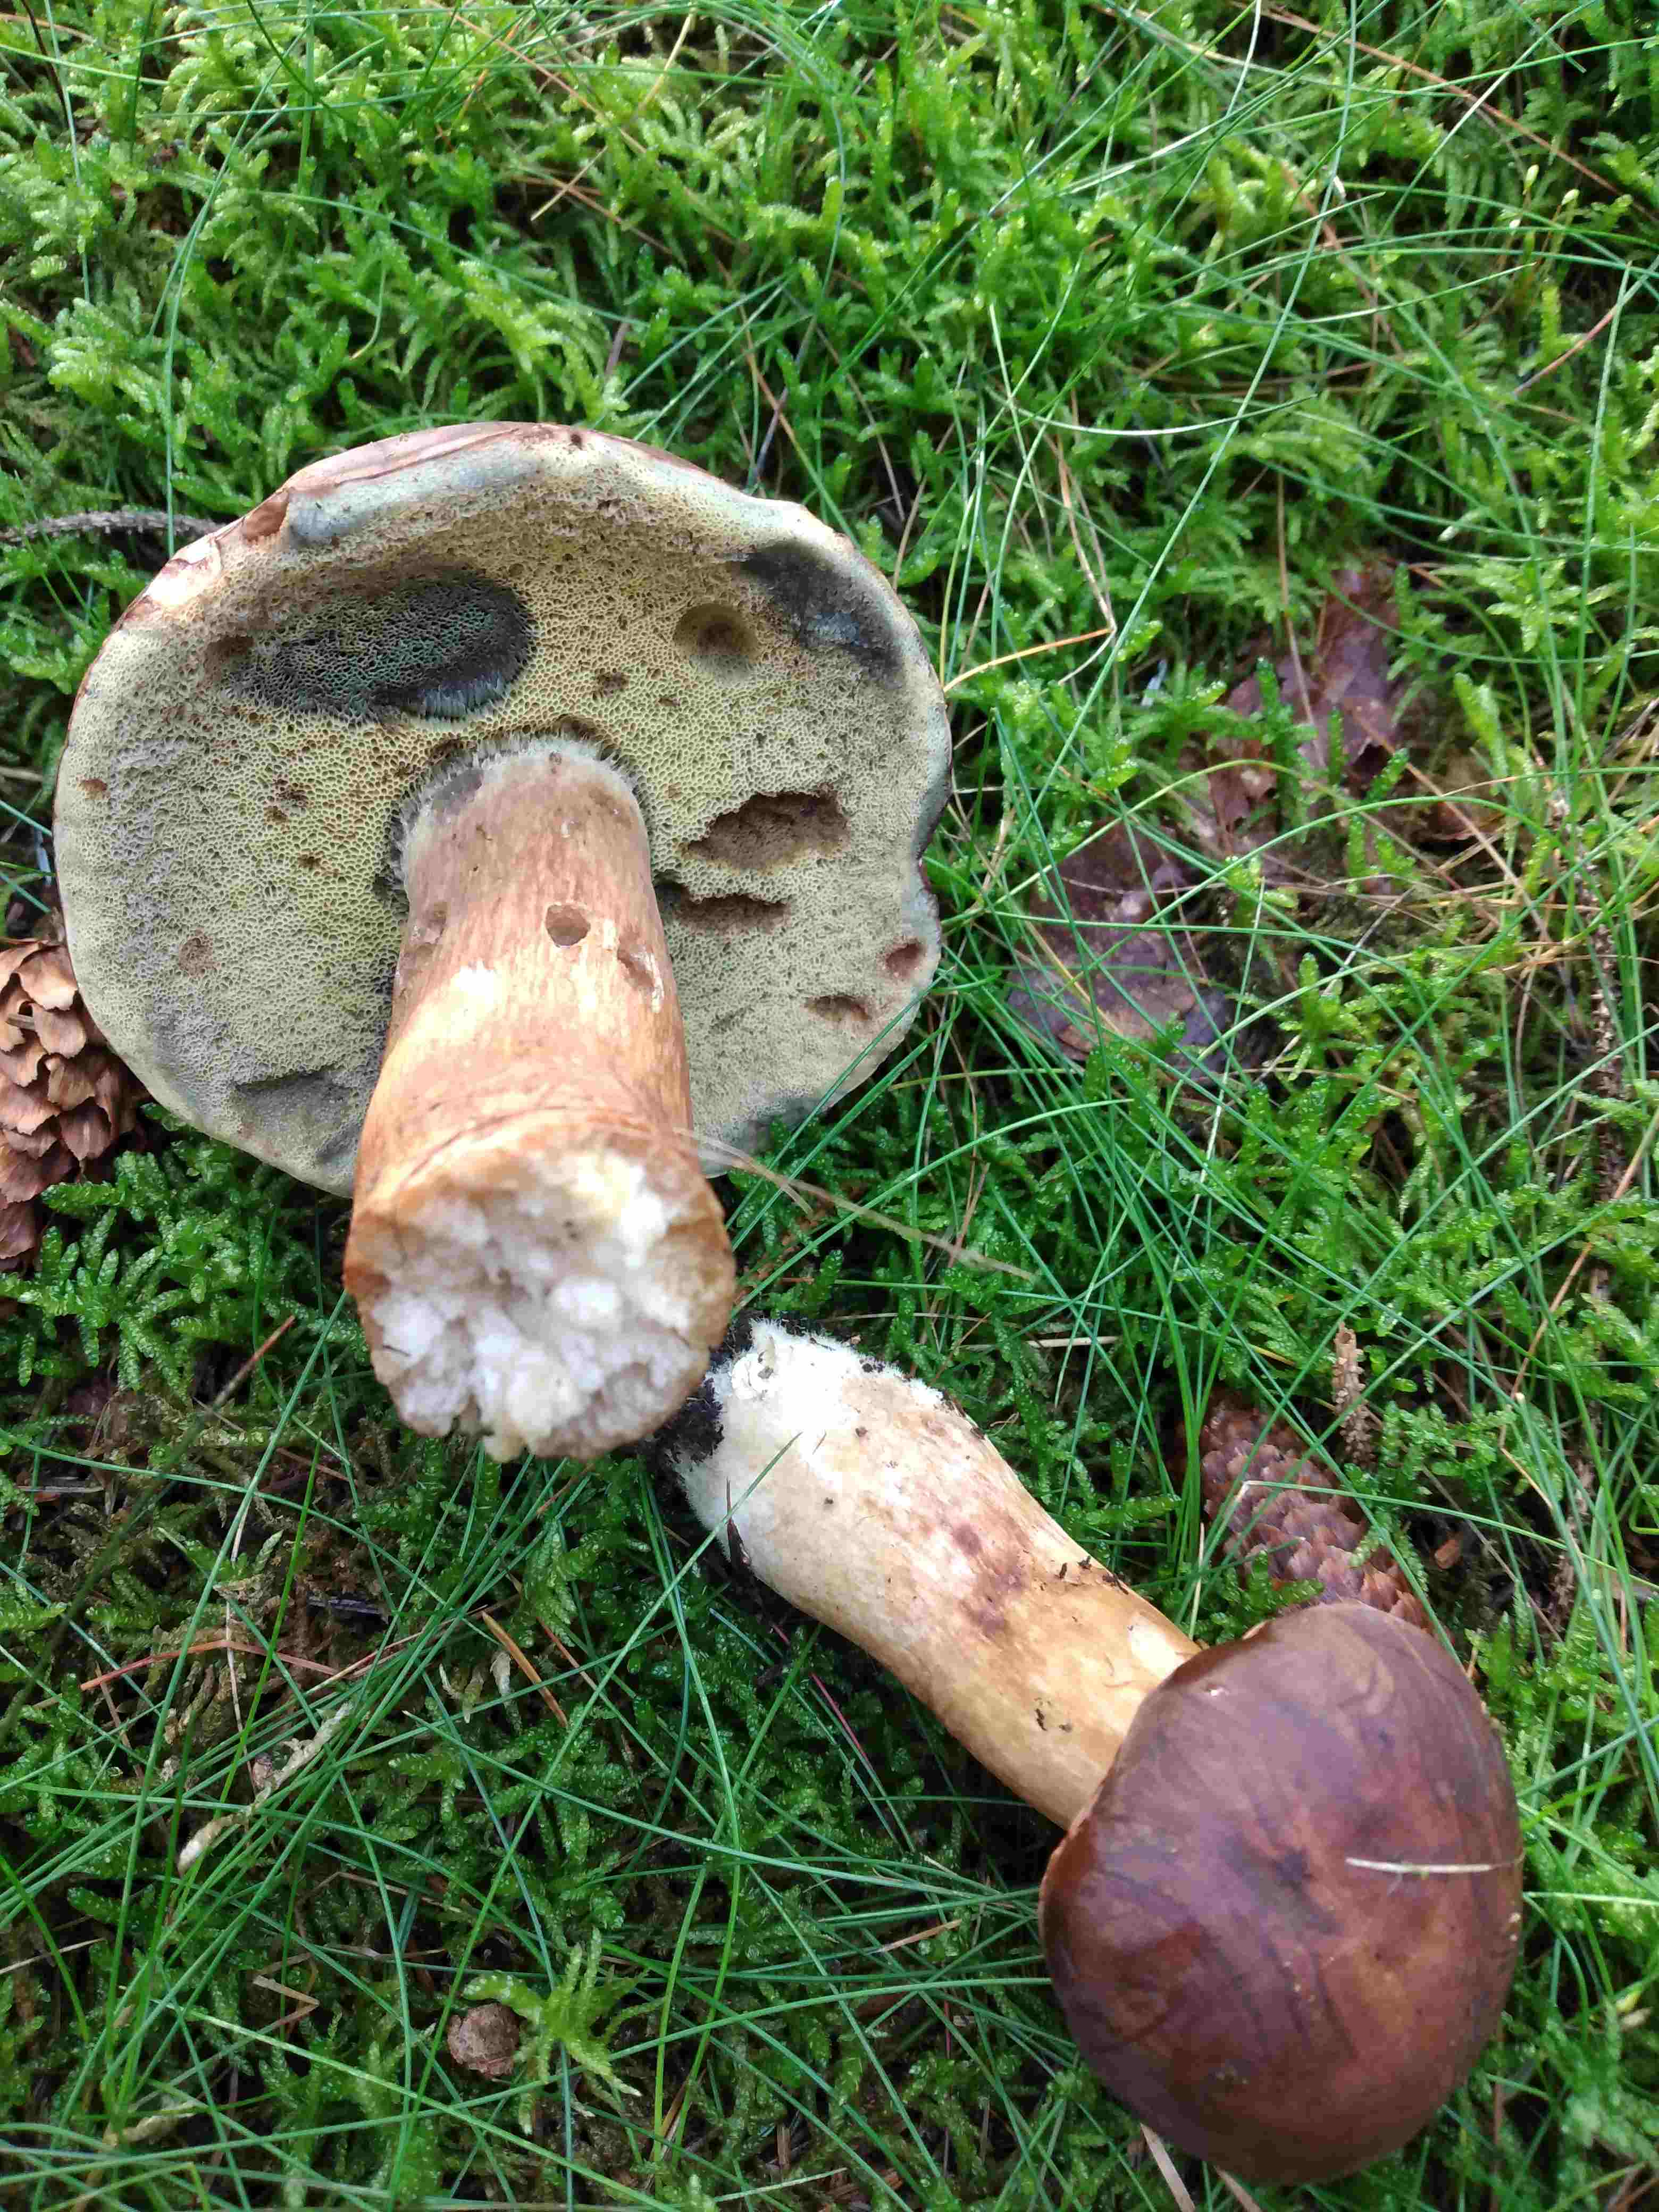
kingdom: Fungi
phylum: Basidiomycota
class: Agaricomycetes
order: Boletales
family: Boletaceae
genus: Imleria
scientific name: Imleria badia
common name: brunstokket rørhat
